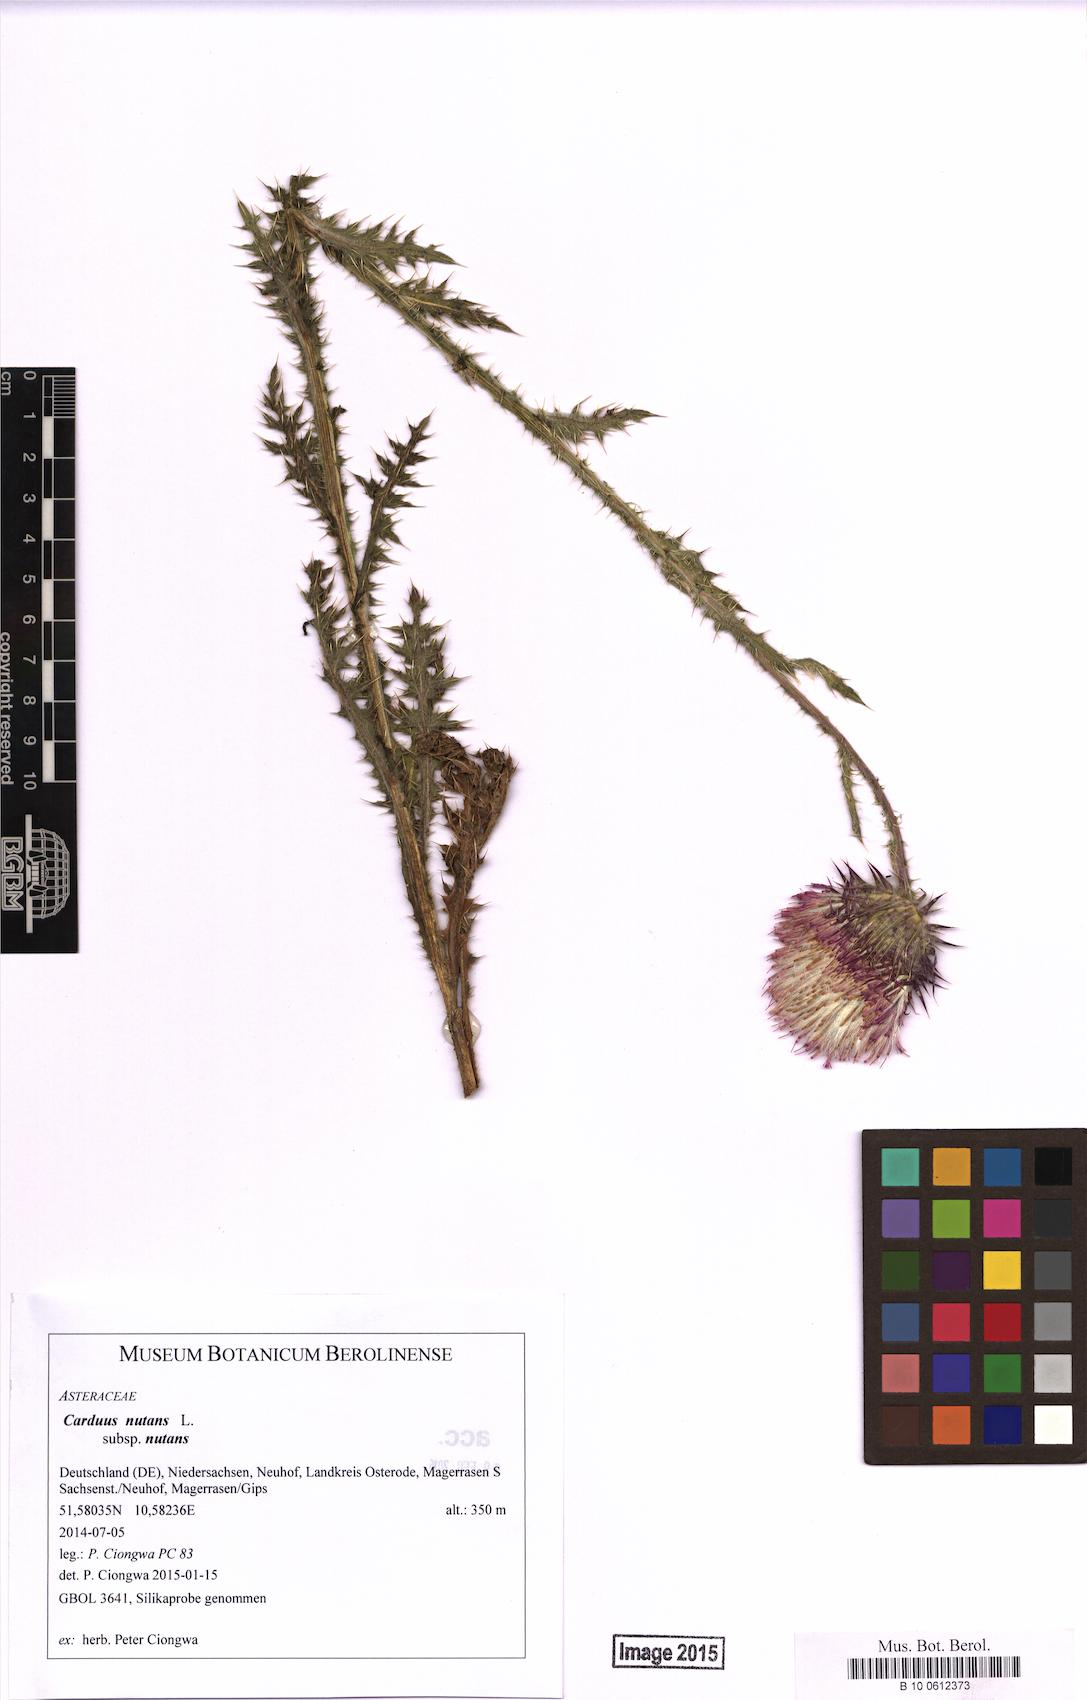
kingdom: Plantae
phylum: Tracheophyta
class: Magnoliopsida
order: Asterales
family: Asteraceae
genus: Carduus
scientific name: Carduus nutans
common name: Musk thistle
